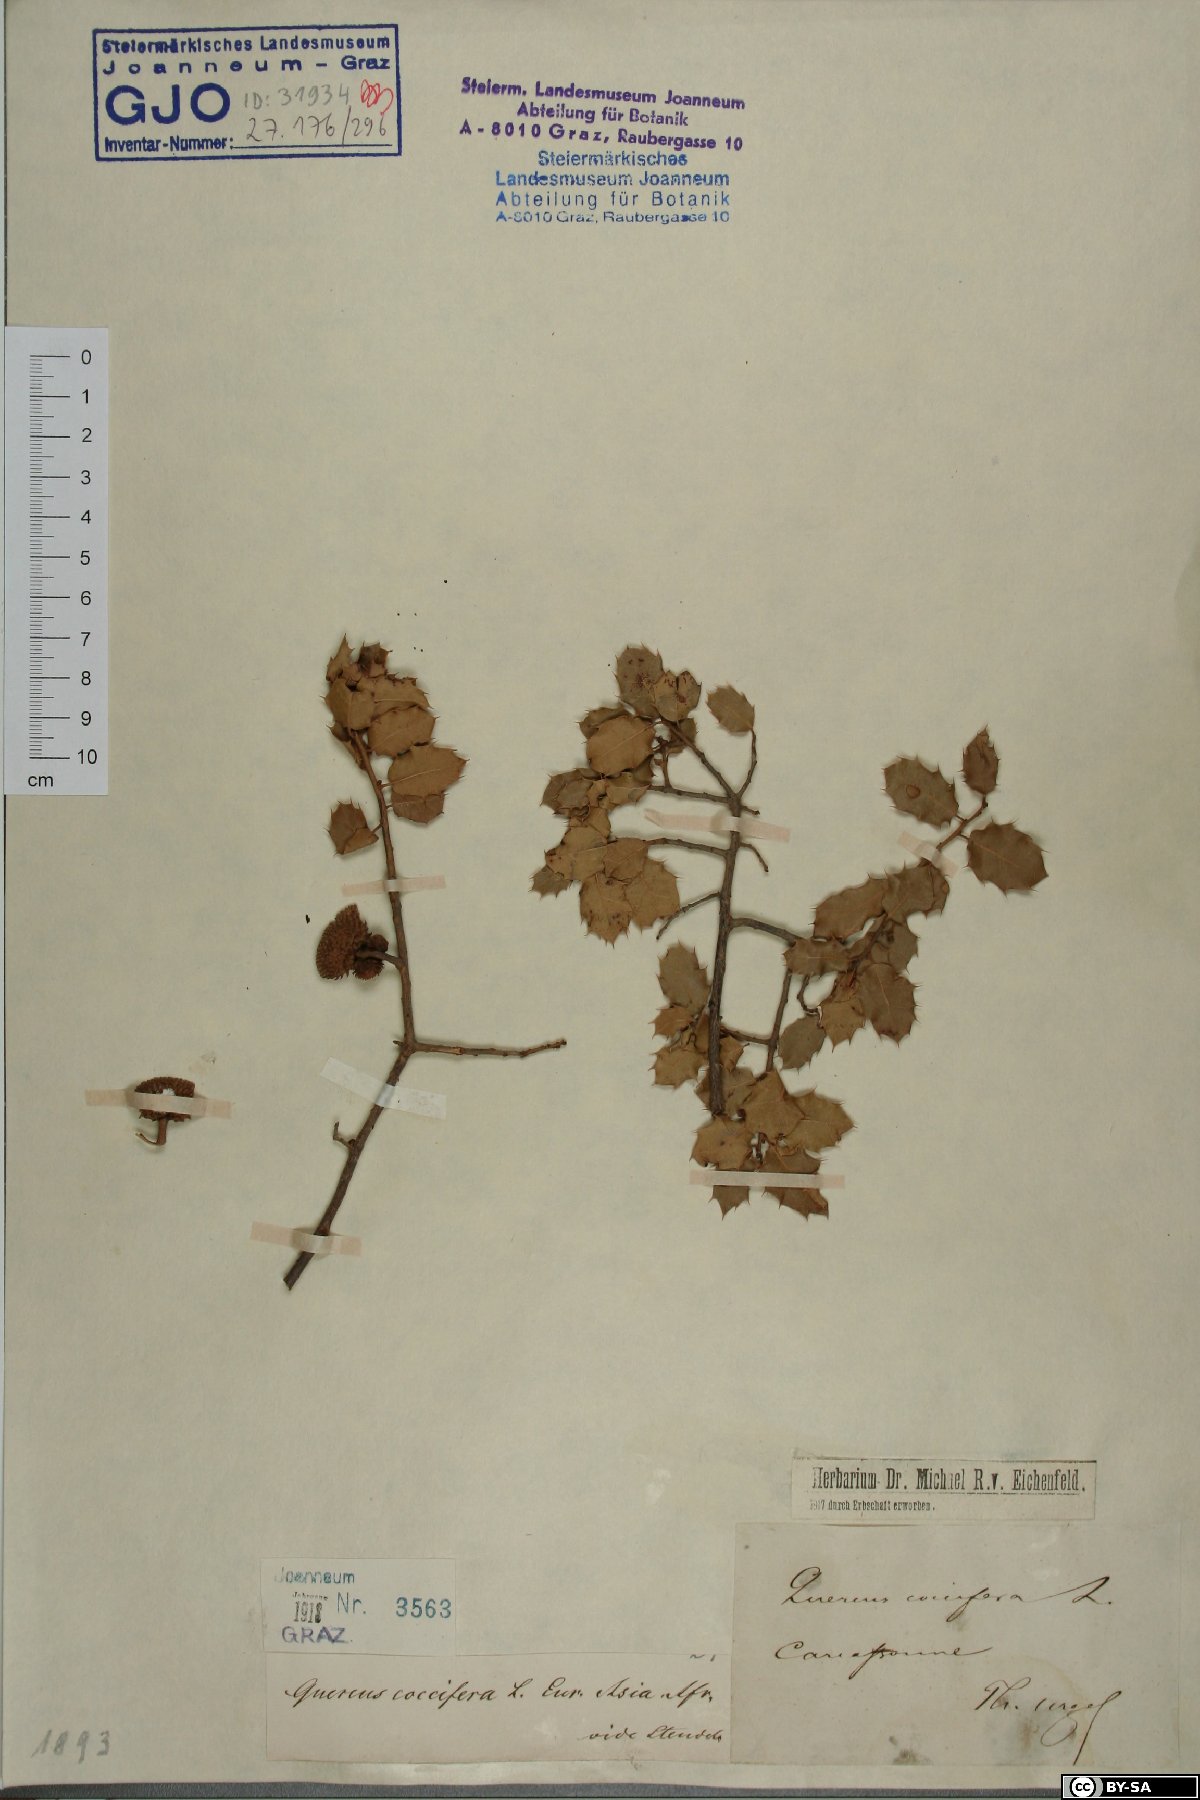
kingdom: Plantae
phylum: Tracheophyta
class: Magnoliopsida
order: Fagales
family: Fagaceae
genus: Quercus
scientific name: Quercus coccifera
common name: Kermes oak
